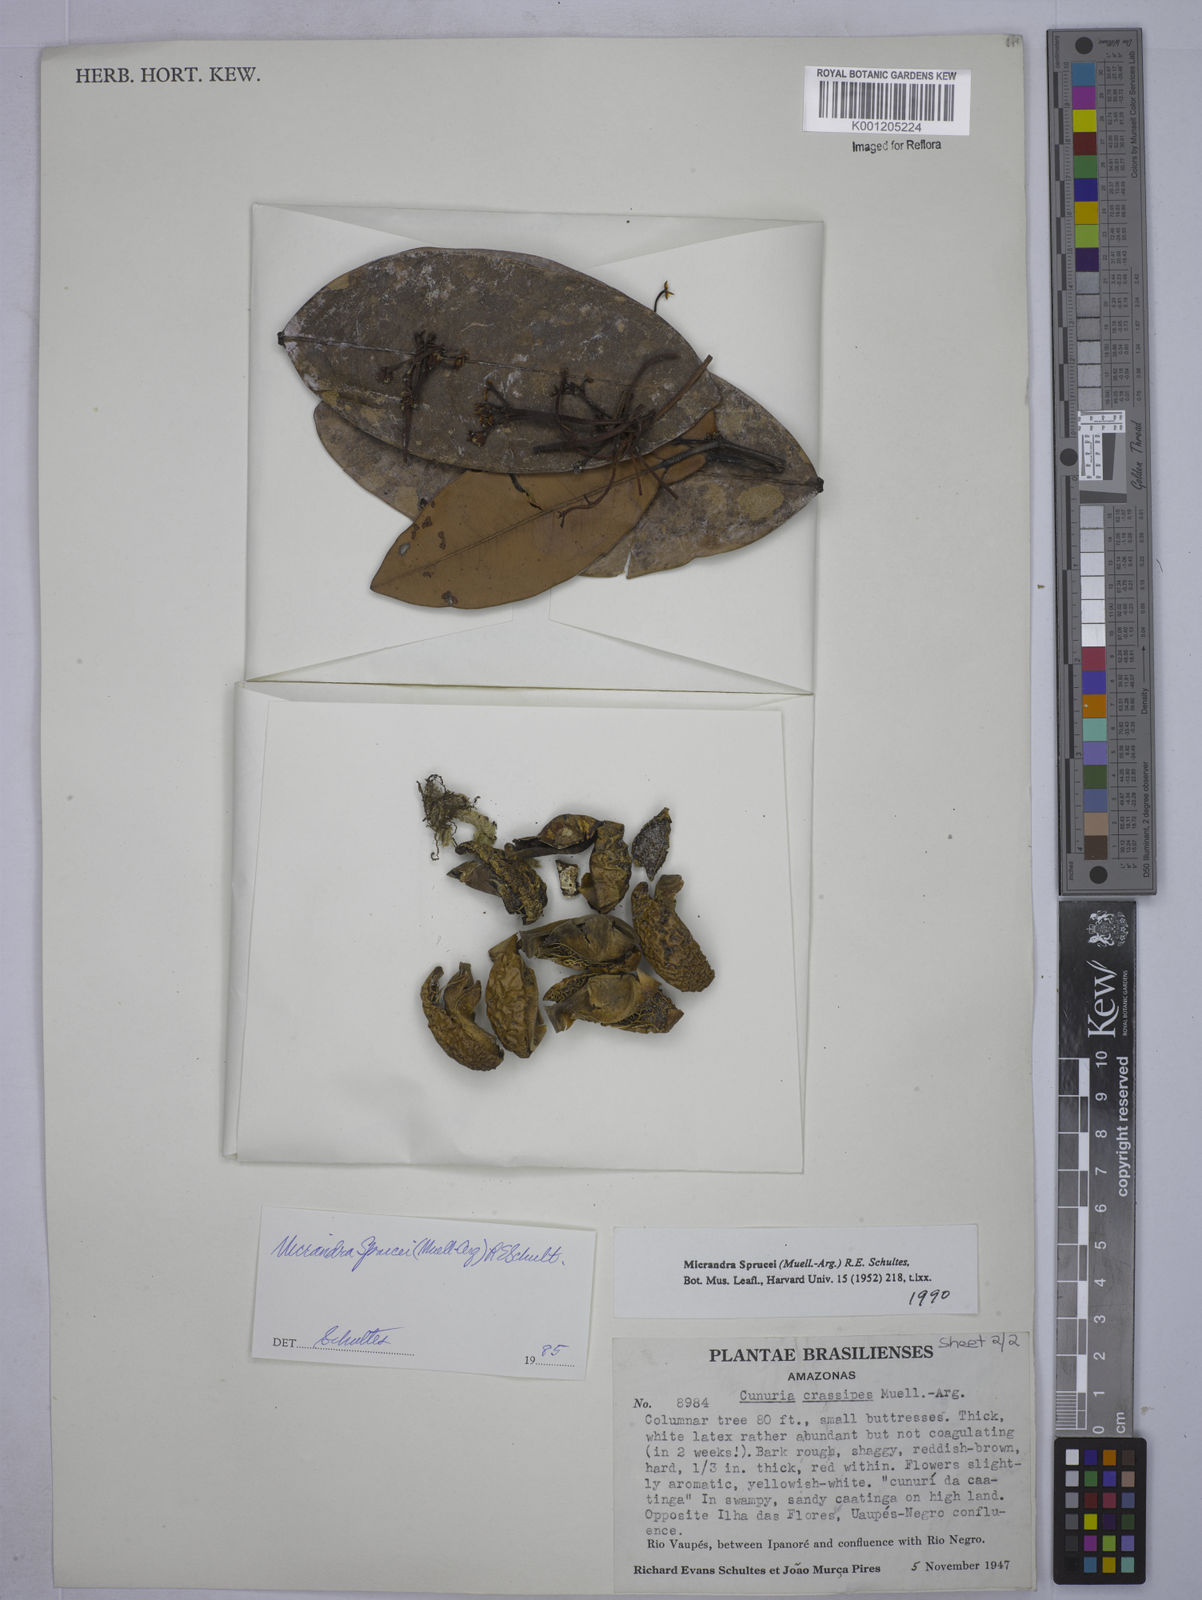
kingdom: Plantae
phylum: Tracheophyta
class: Magnoliopsida
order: Malpighiales
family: Euphorbiaceae
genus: Micrandra
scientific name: Micrandra
